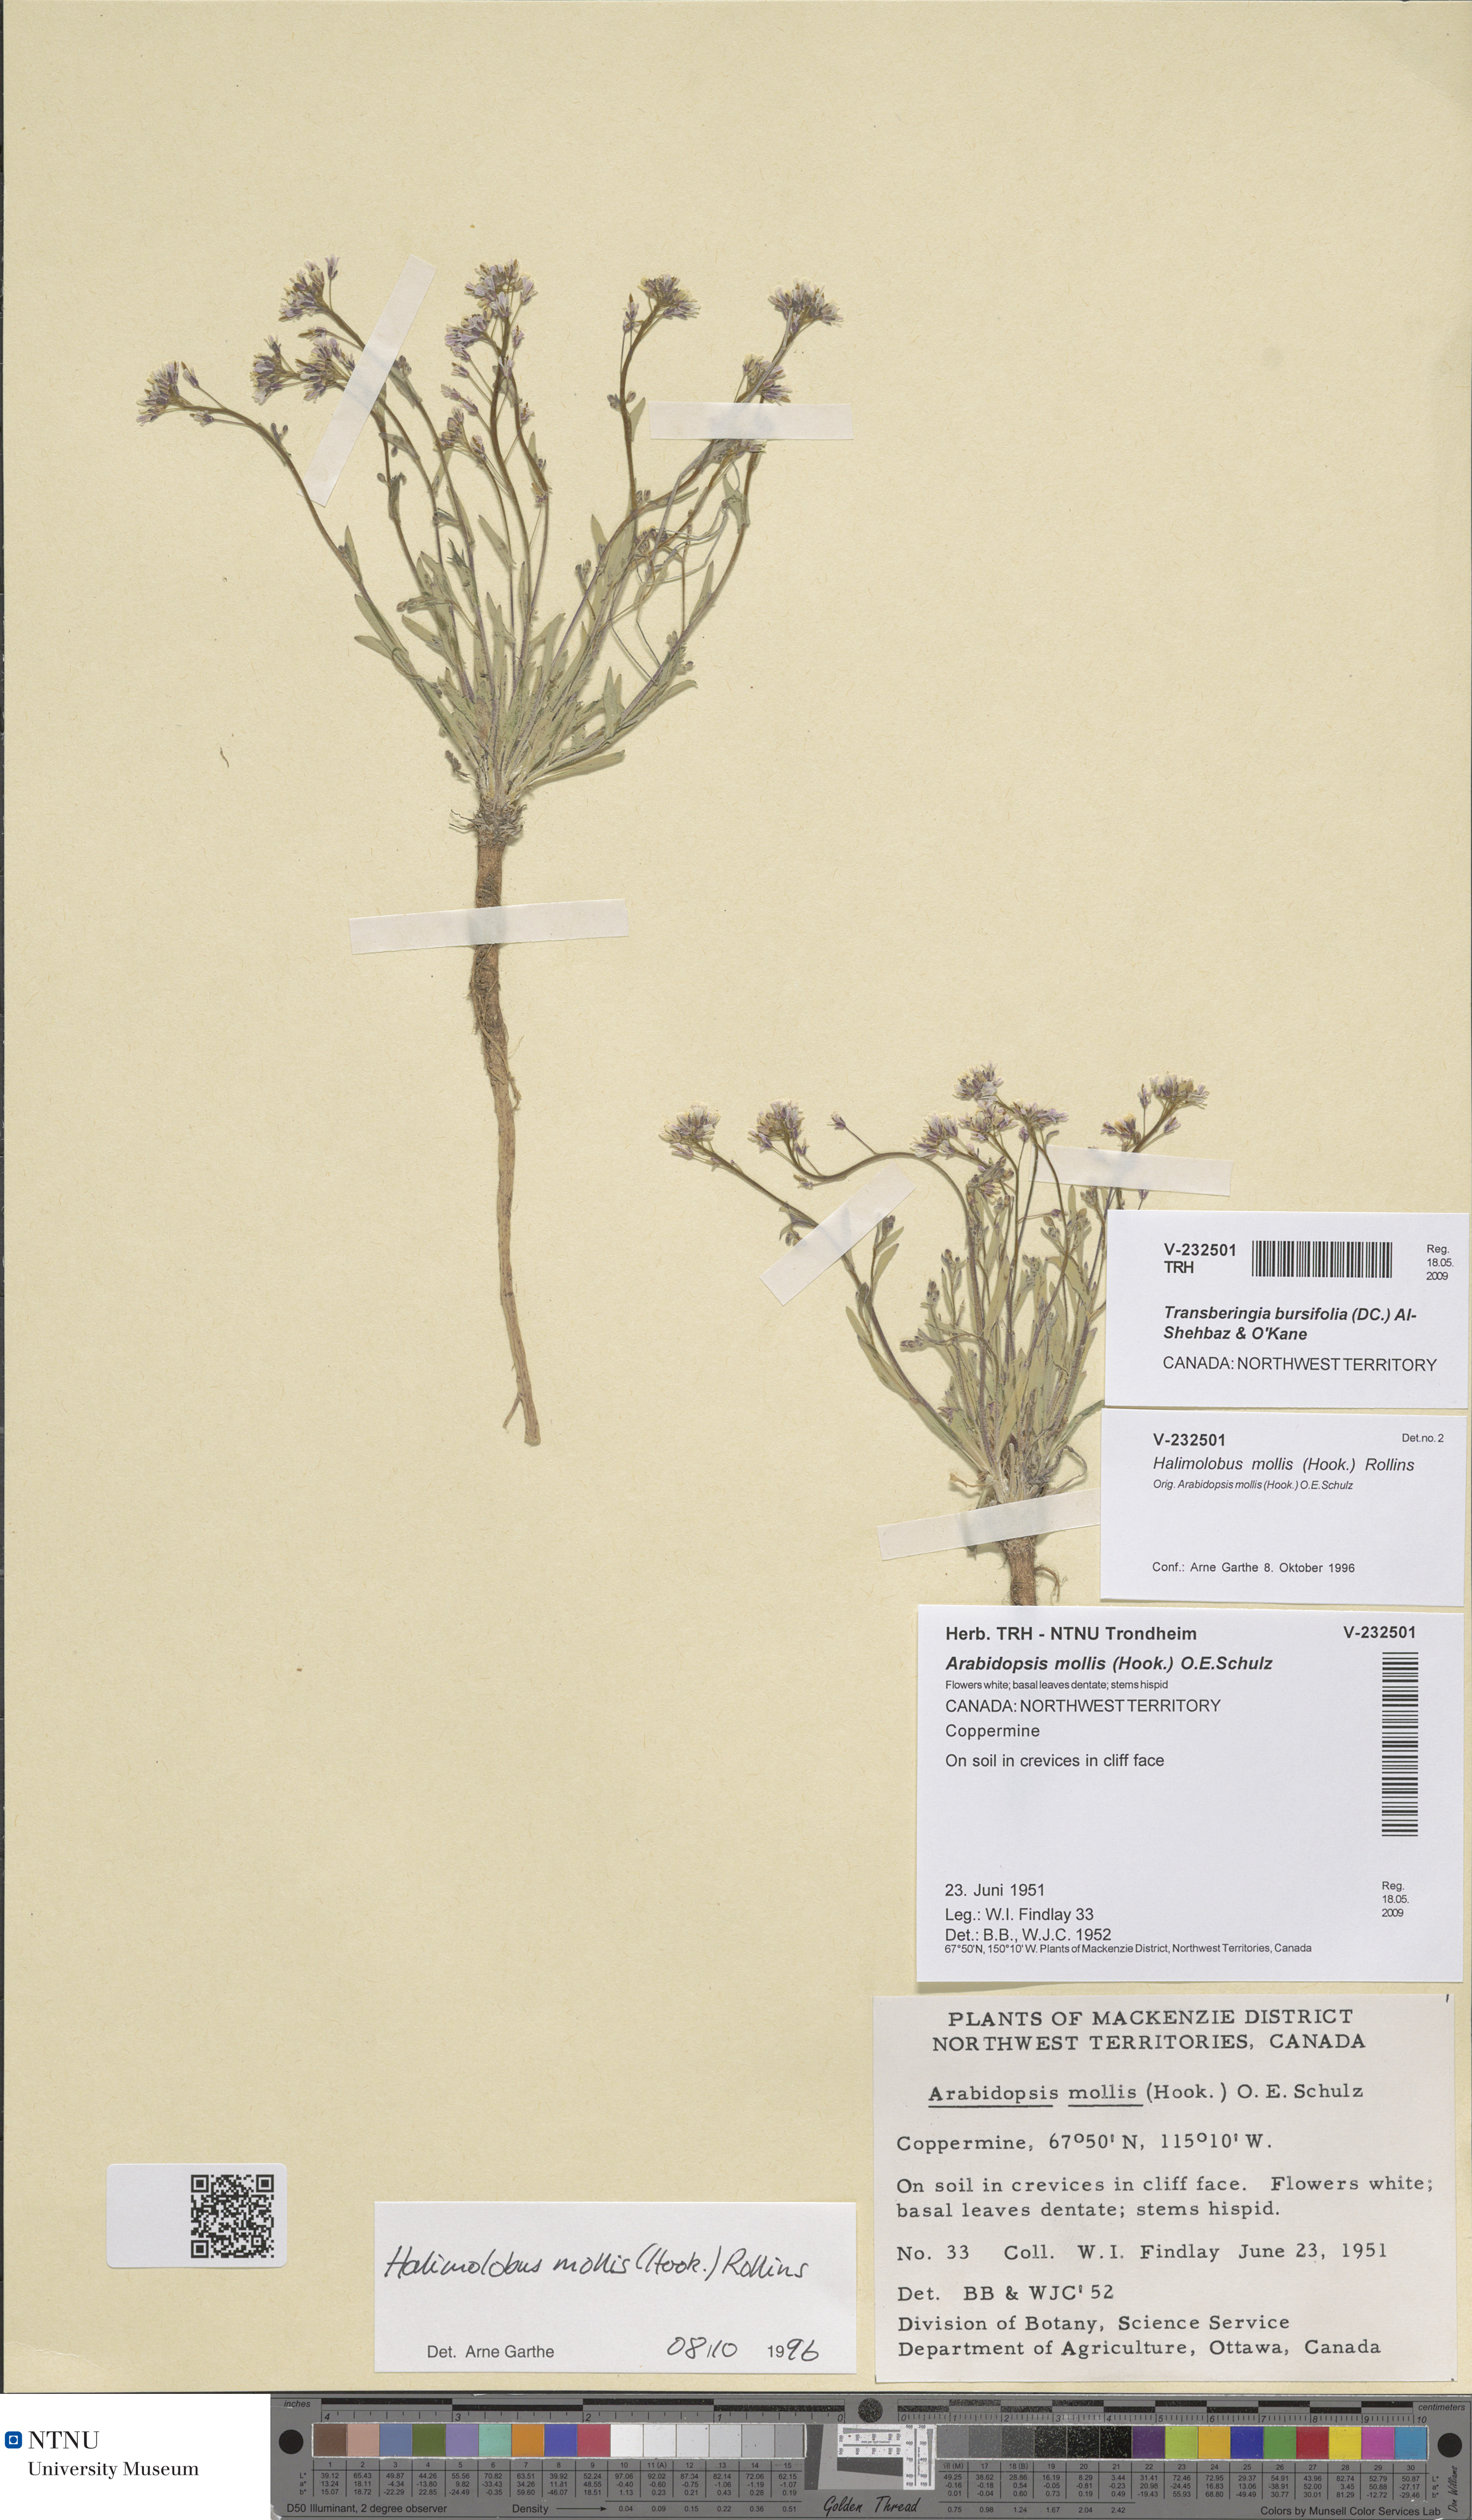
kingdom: Plantae
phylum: Tracheophyta
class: Magnoliopsida
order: Brassicales
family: Brassicaceae
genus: Crucihimalaya
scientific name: Crucihimalaya bursifolia
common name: Soft fissurewort
